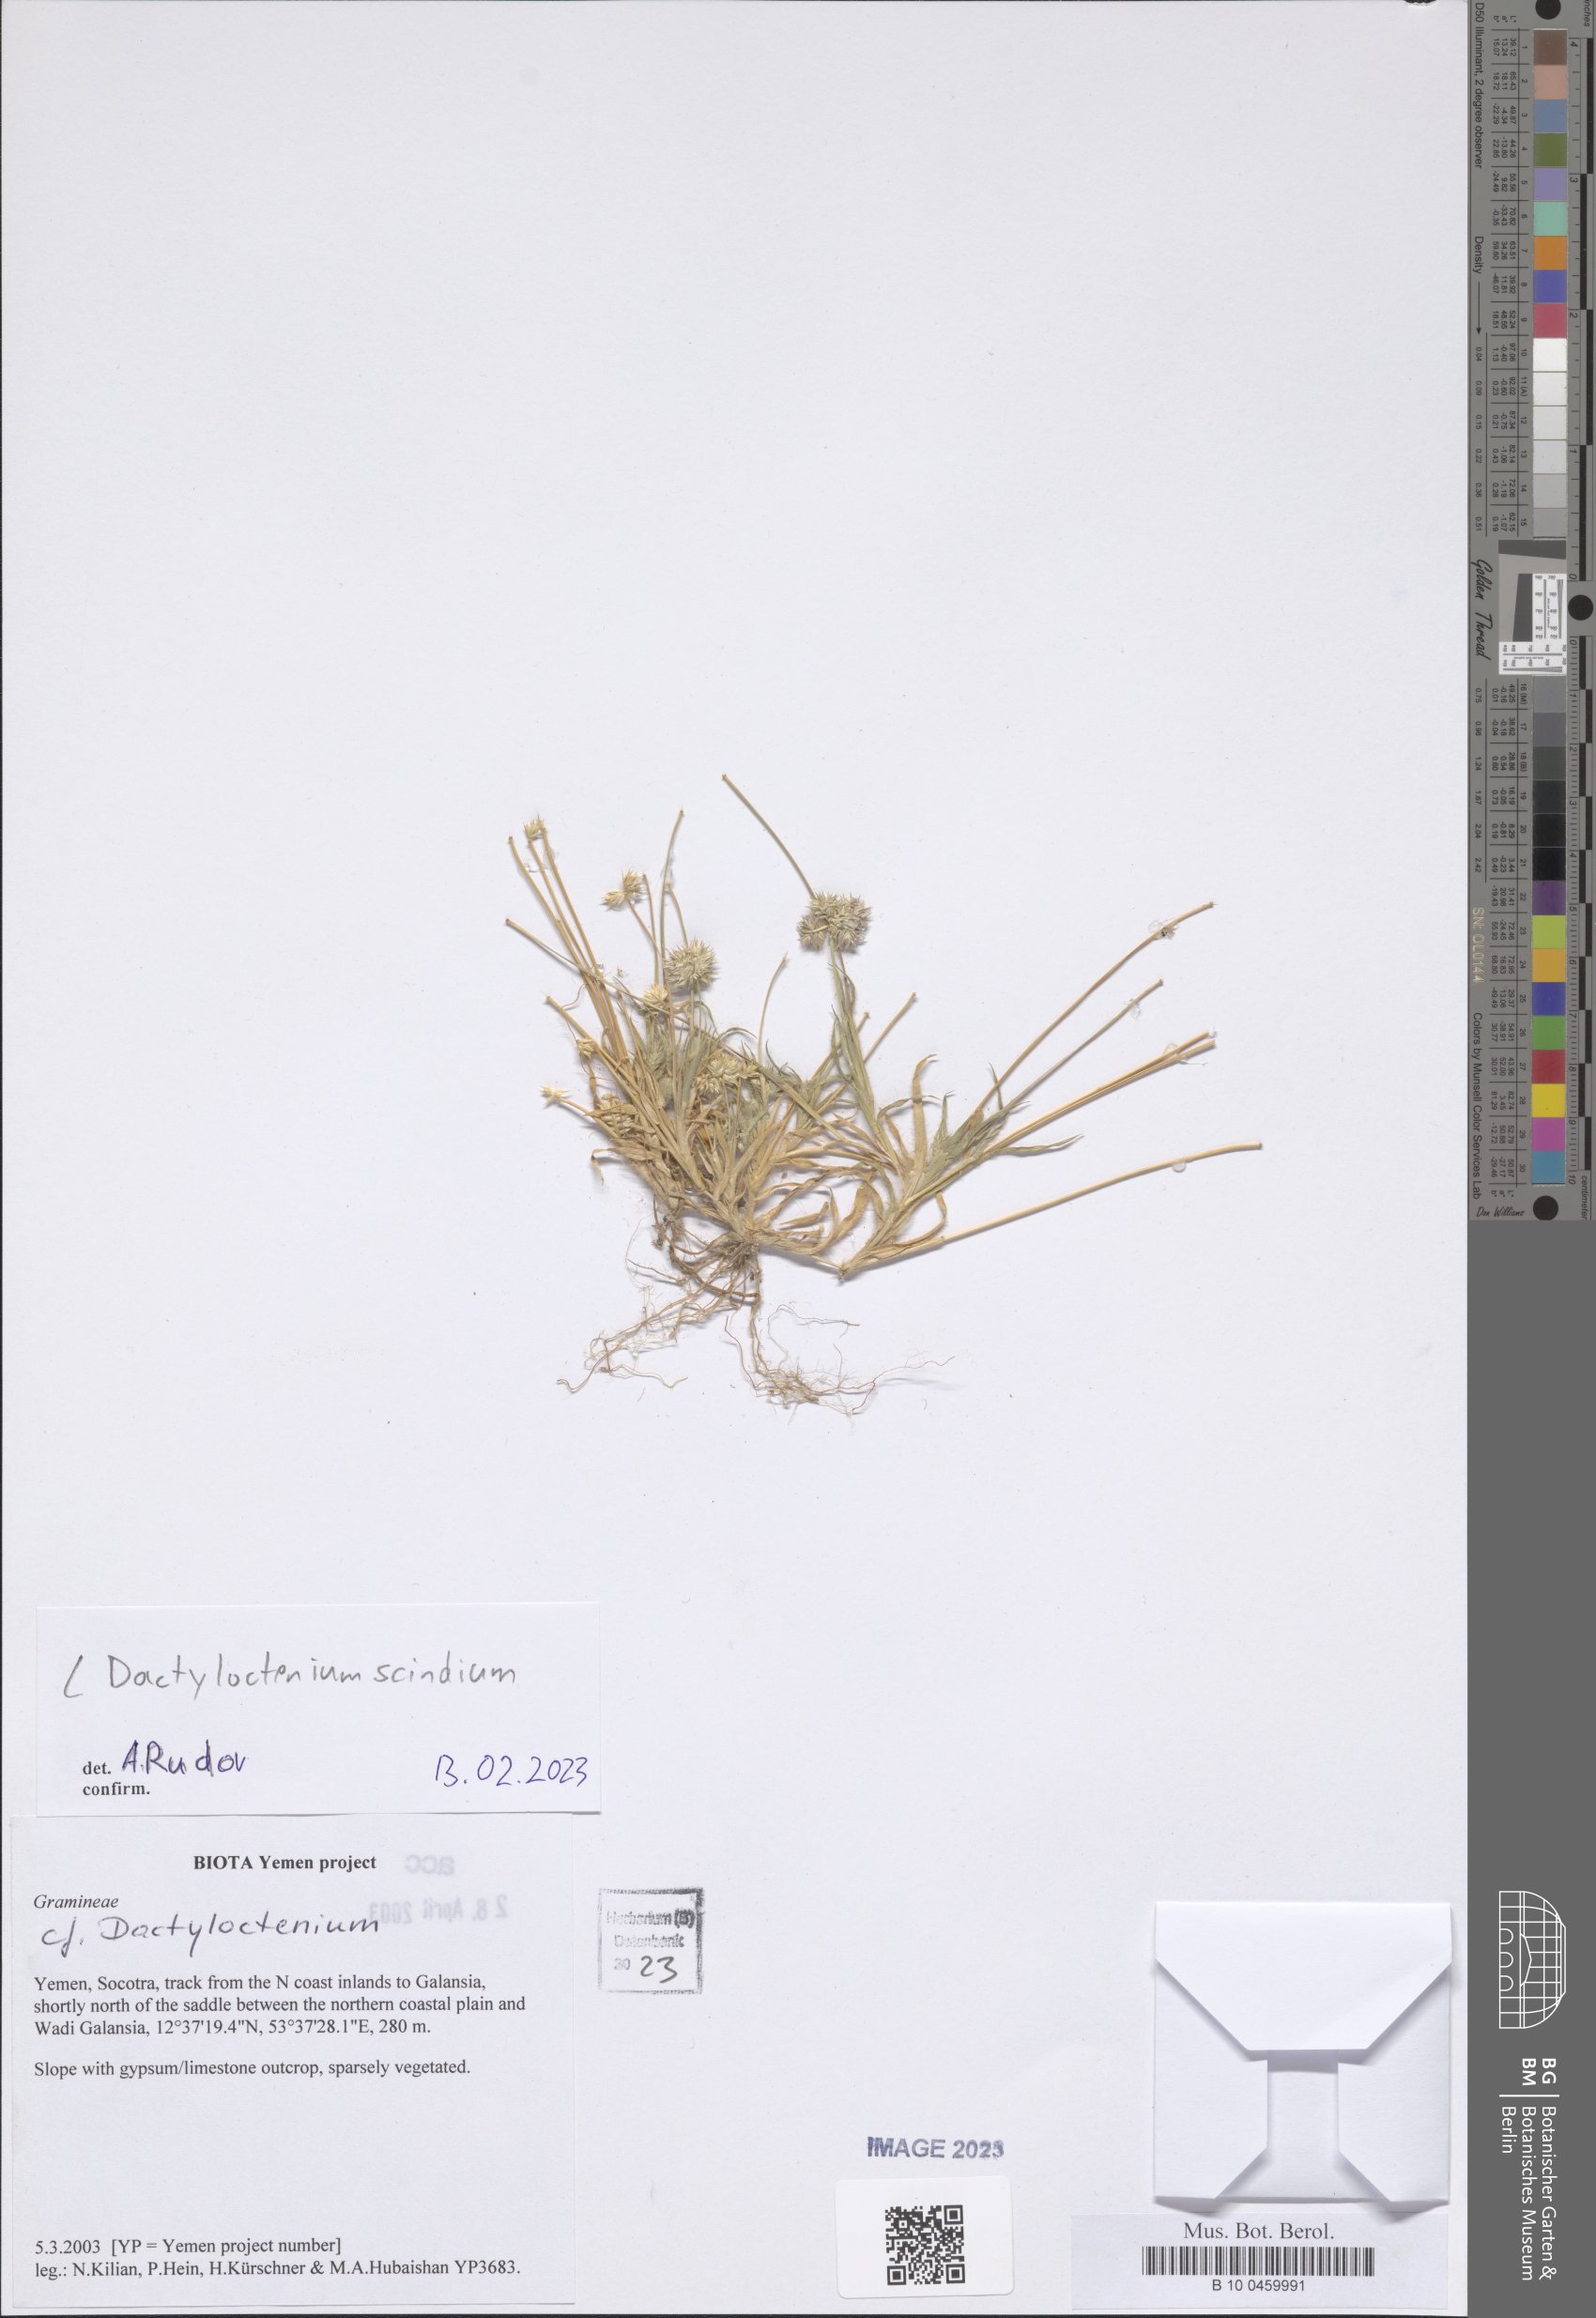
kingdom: Plantae
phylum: Tracheophyta
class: Liliopsida
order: Poales
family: Poaceae
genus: Dactyloctenium
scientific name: Dactyloctenium scindicum
